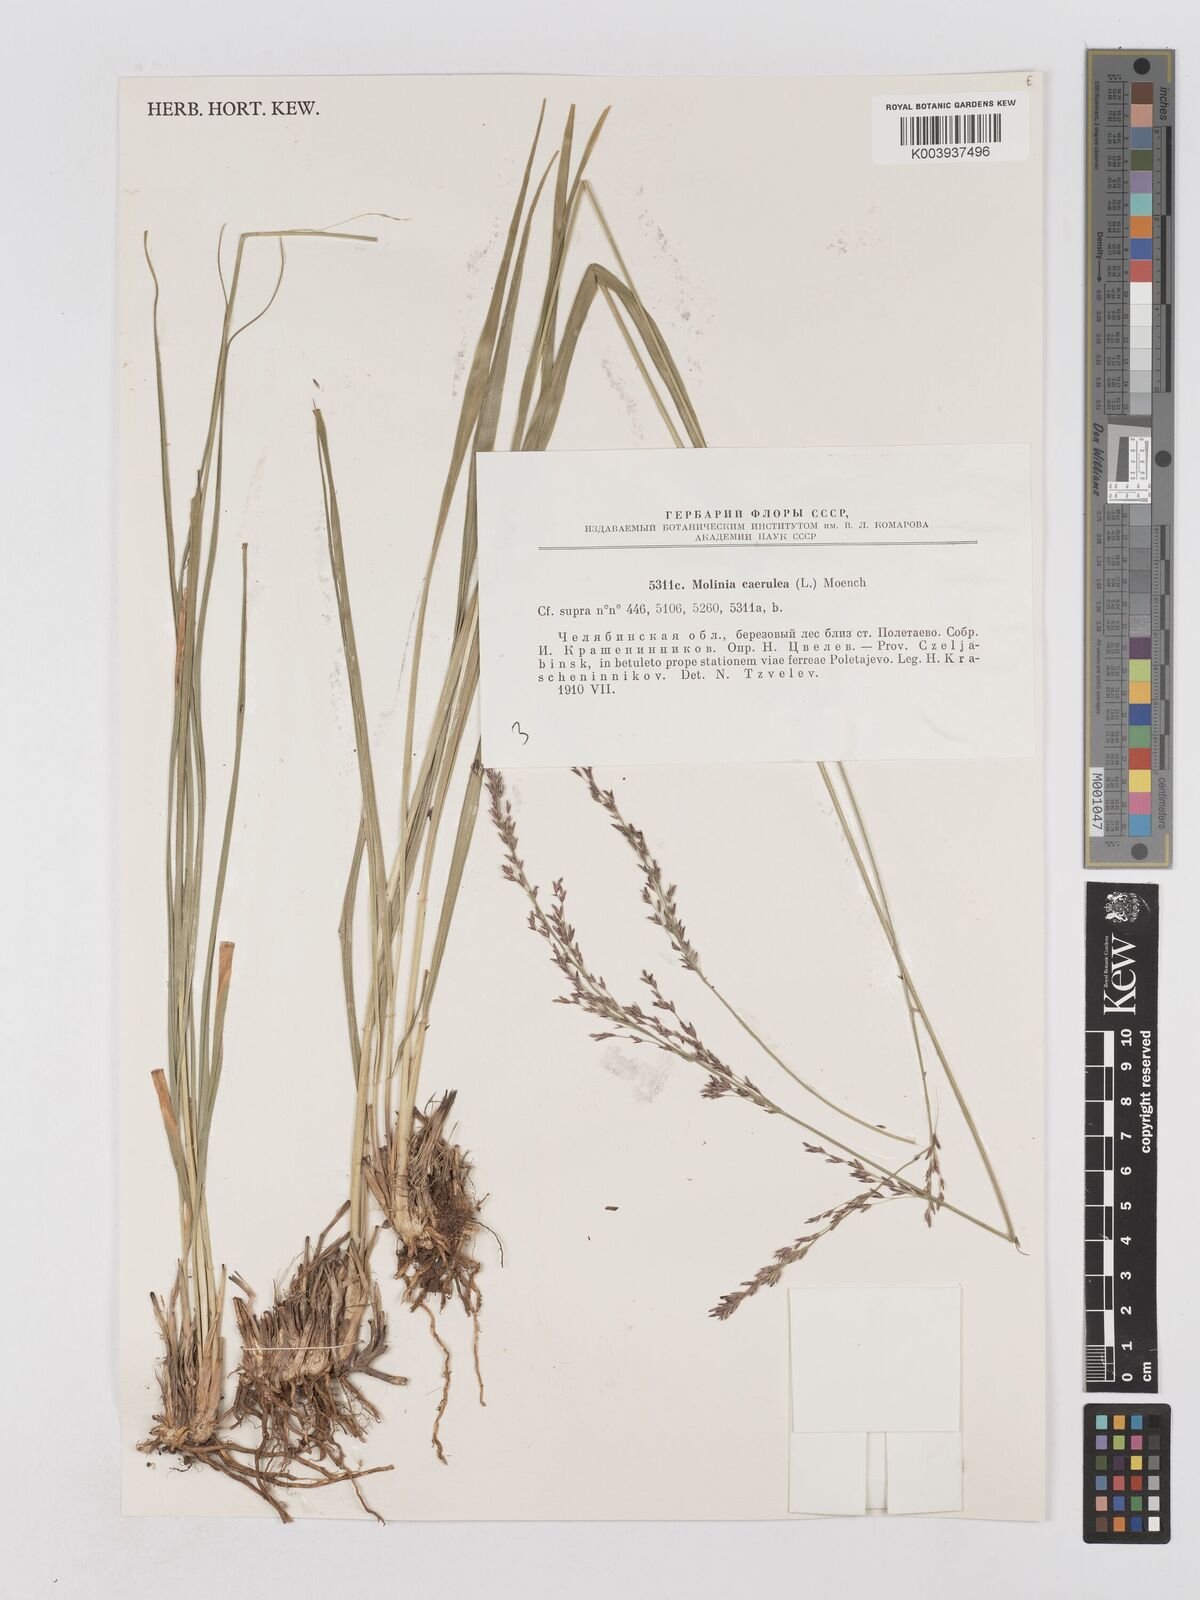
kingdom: Plantae
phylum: Tracheophyta
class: Liliopsida
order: Poales
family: Poaceae
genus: Molinia
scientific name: Molinia caerulea
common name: Purple moor-grass
